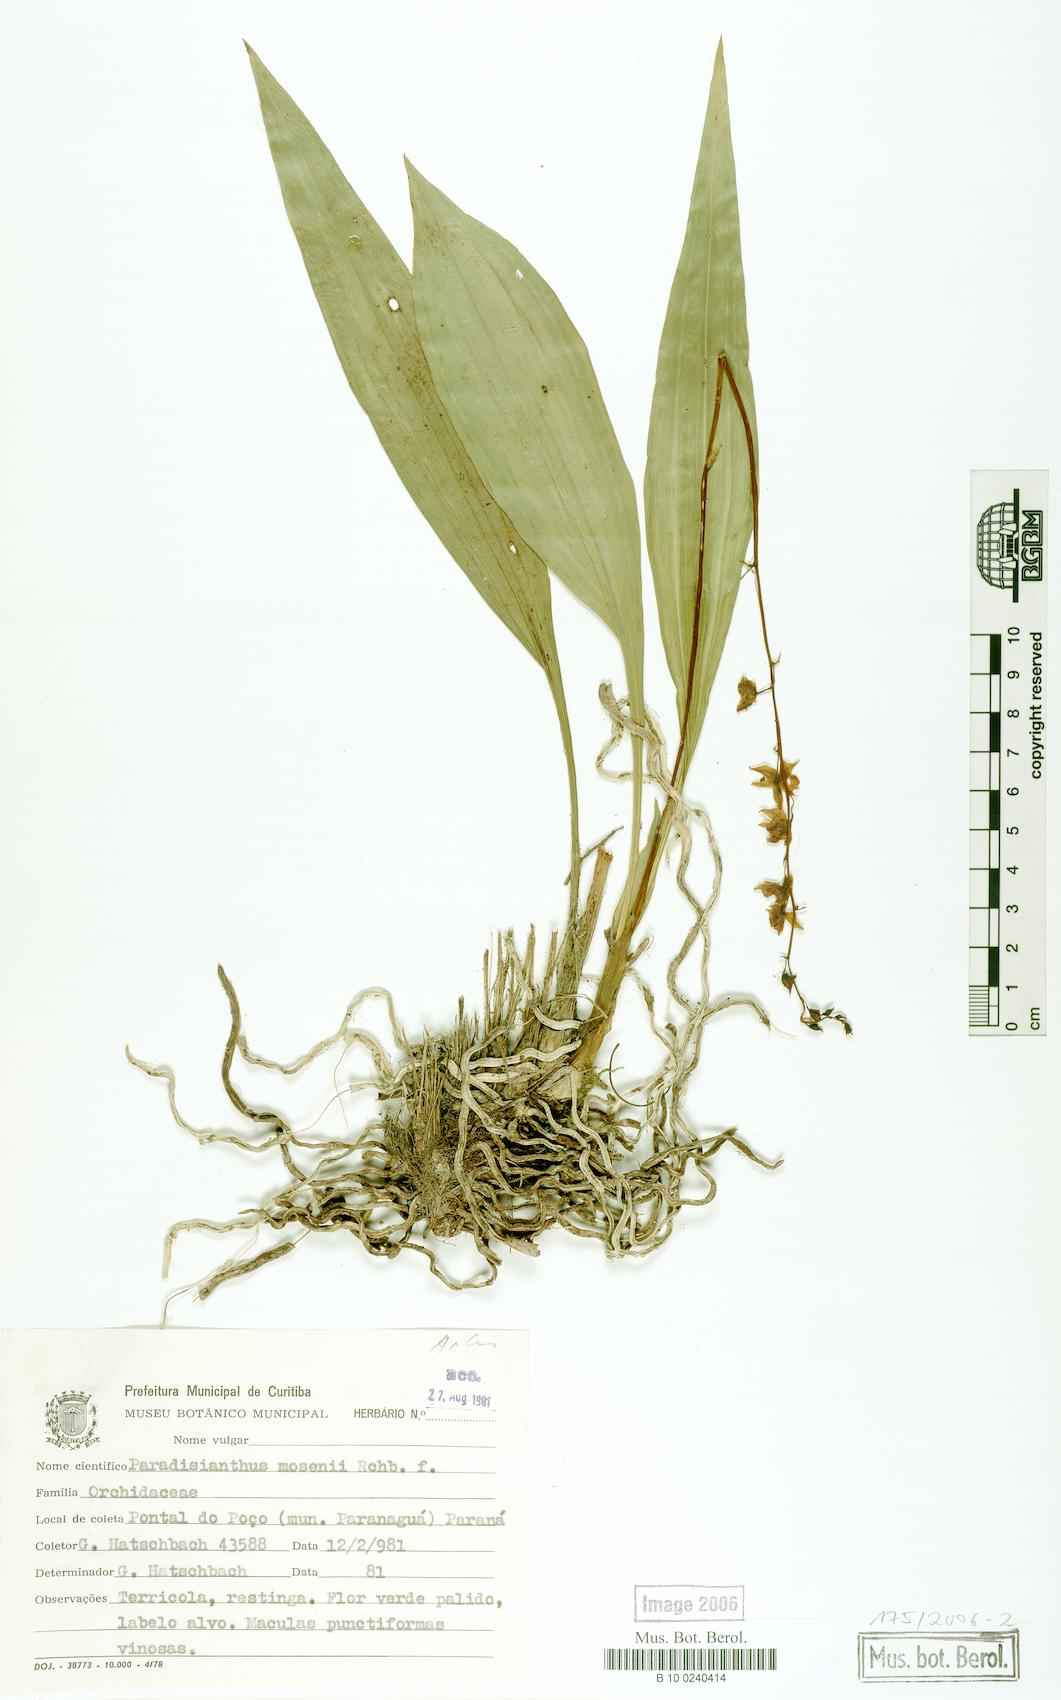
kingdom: Plantae
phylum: Tracheophyta
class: Liliopsida
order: Asparagales
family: Orchidaceae
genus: Paradisanthus
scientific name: Paradisanthus bahiensis
